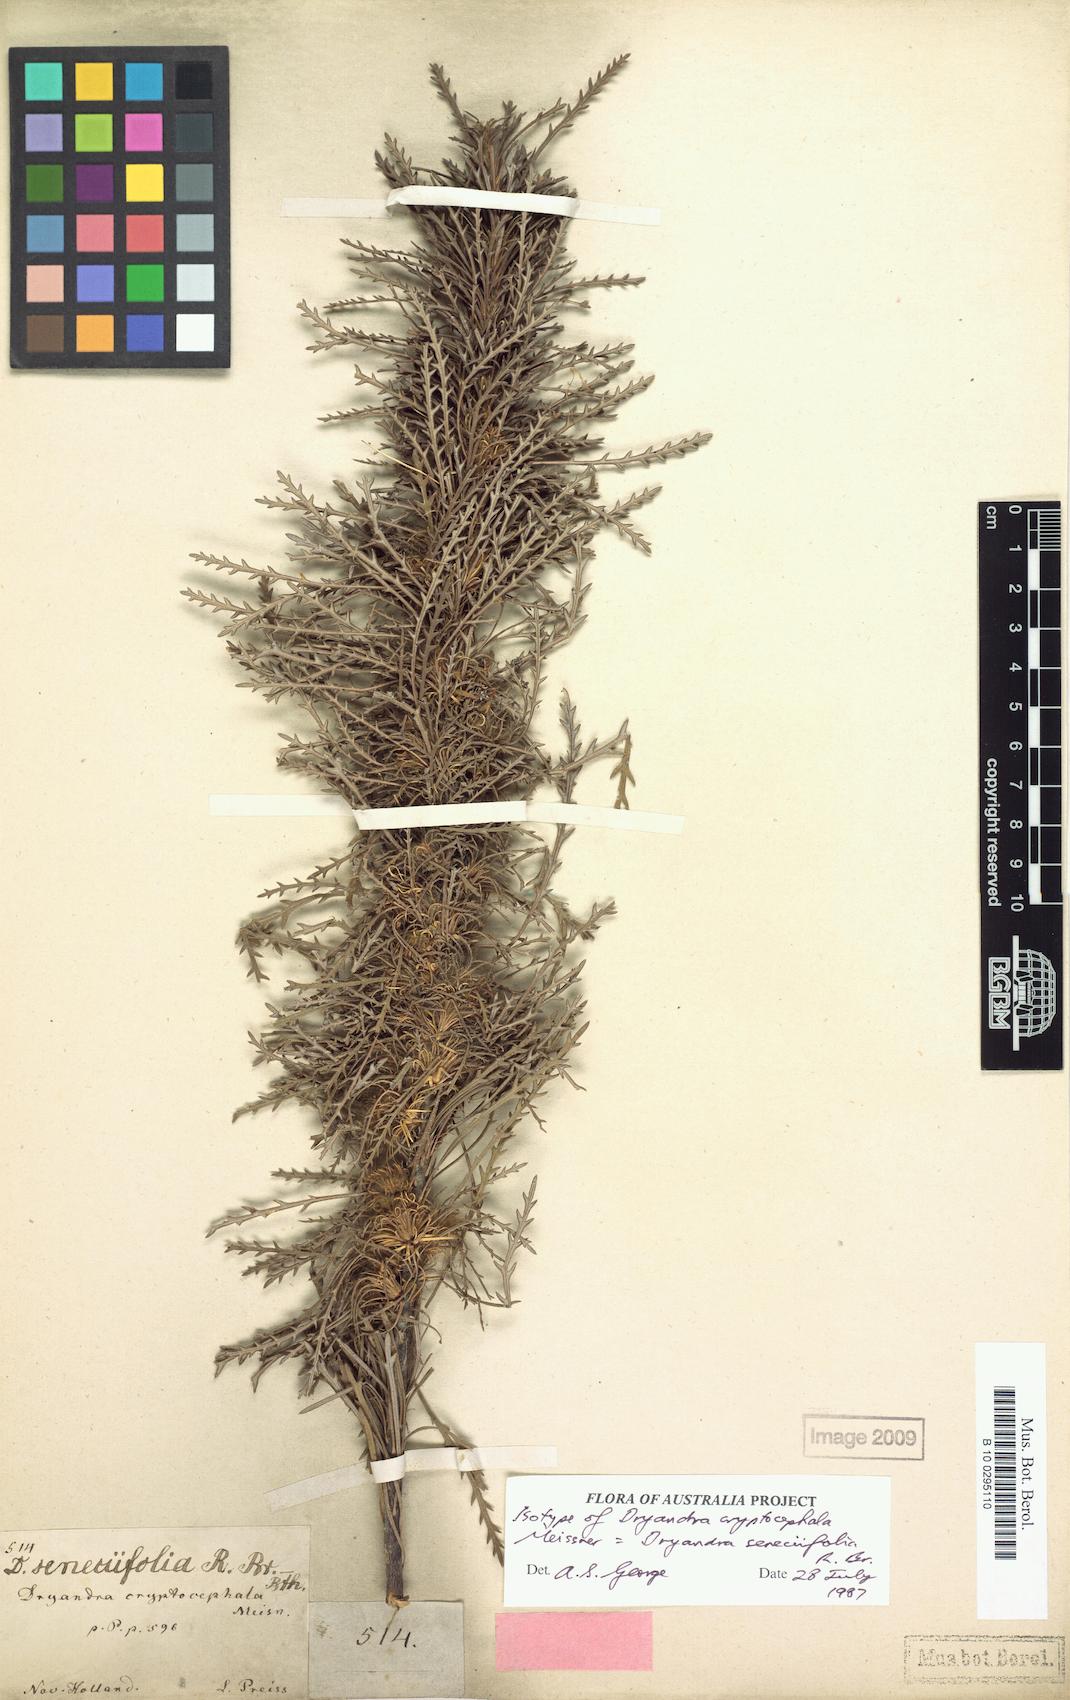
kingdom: Plantae
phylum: Tracheophyta
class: Magnoliopsida
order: Proteales
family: Proteaceae
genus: Banksia
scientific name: Banksia seneciifolia
